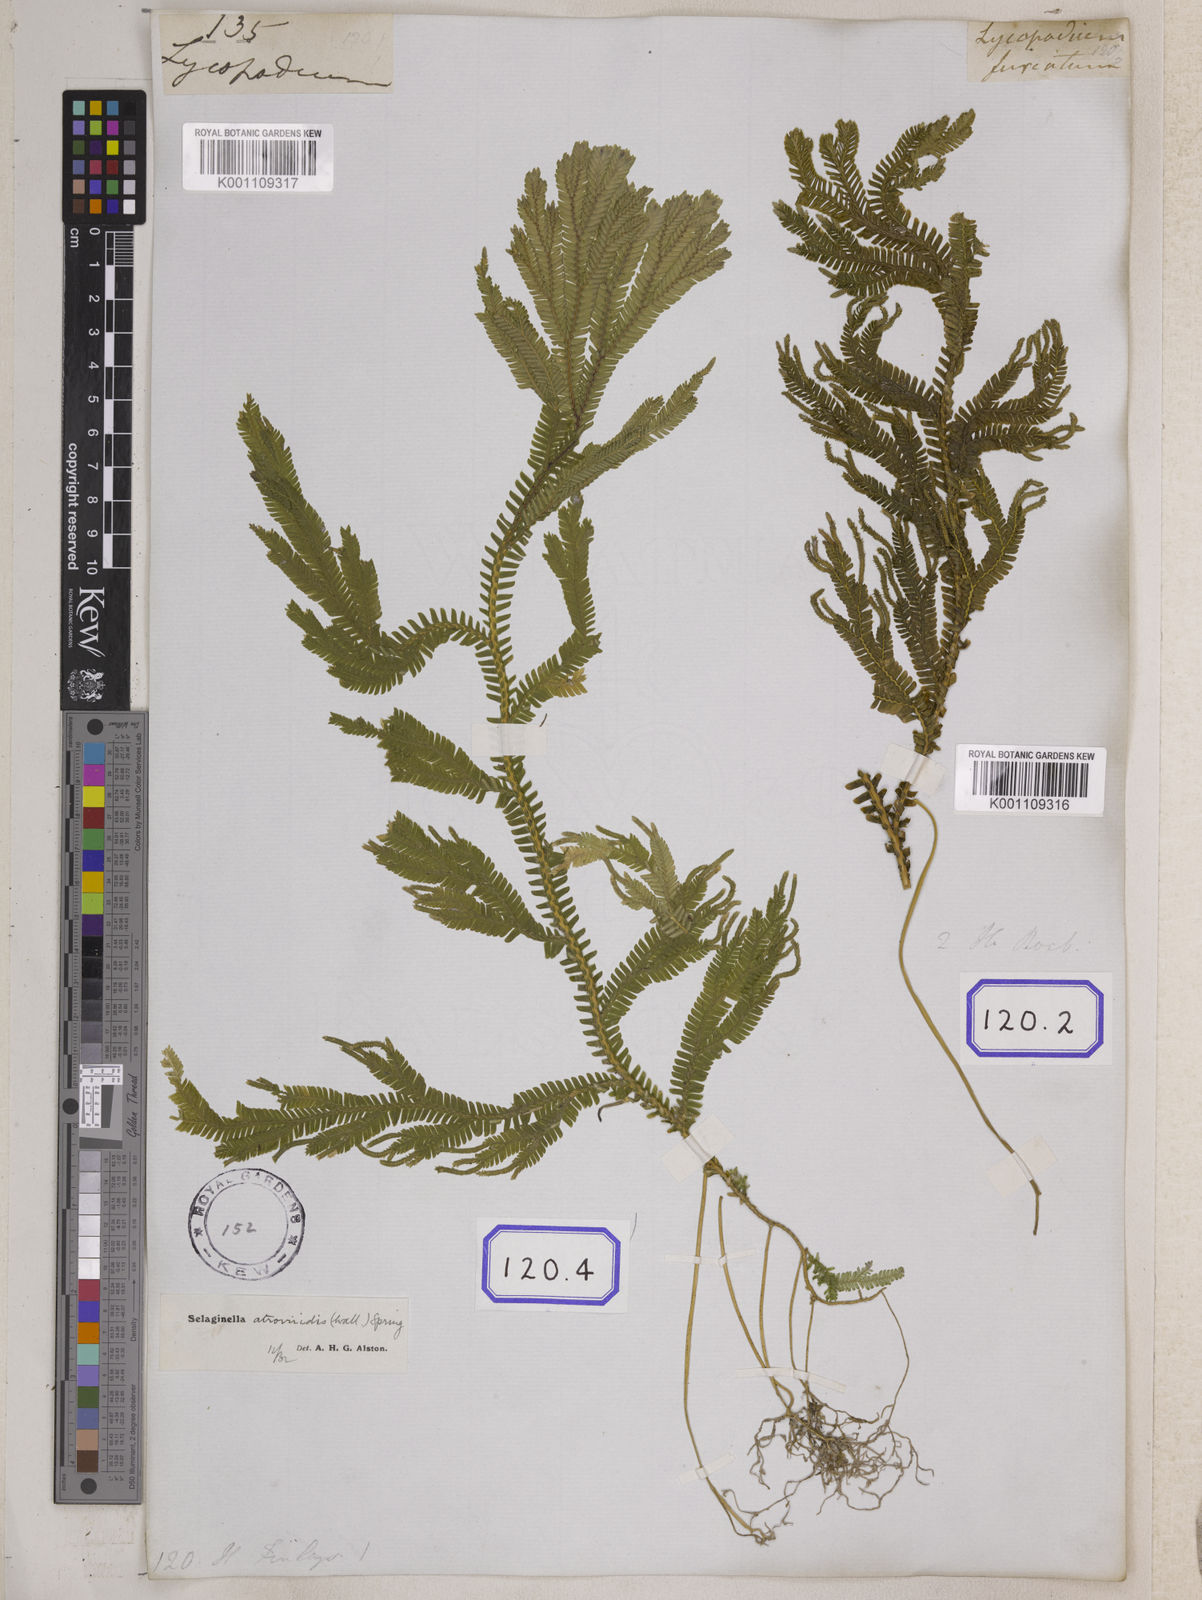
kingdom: Plantae
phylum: Tracheophyta
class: Lycopodiopsida
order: Selaginellales
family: Selaginellaceae
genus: Selaginella
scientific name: Selaginella intermedia
